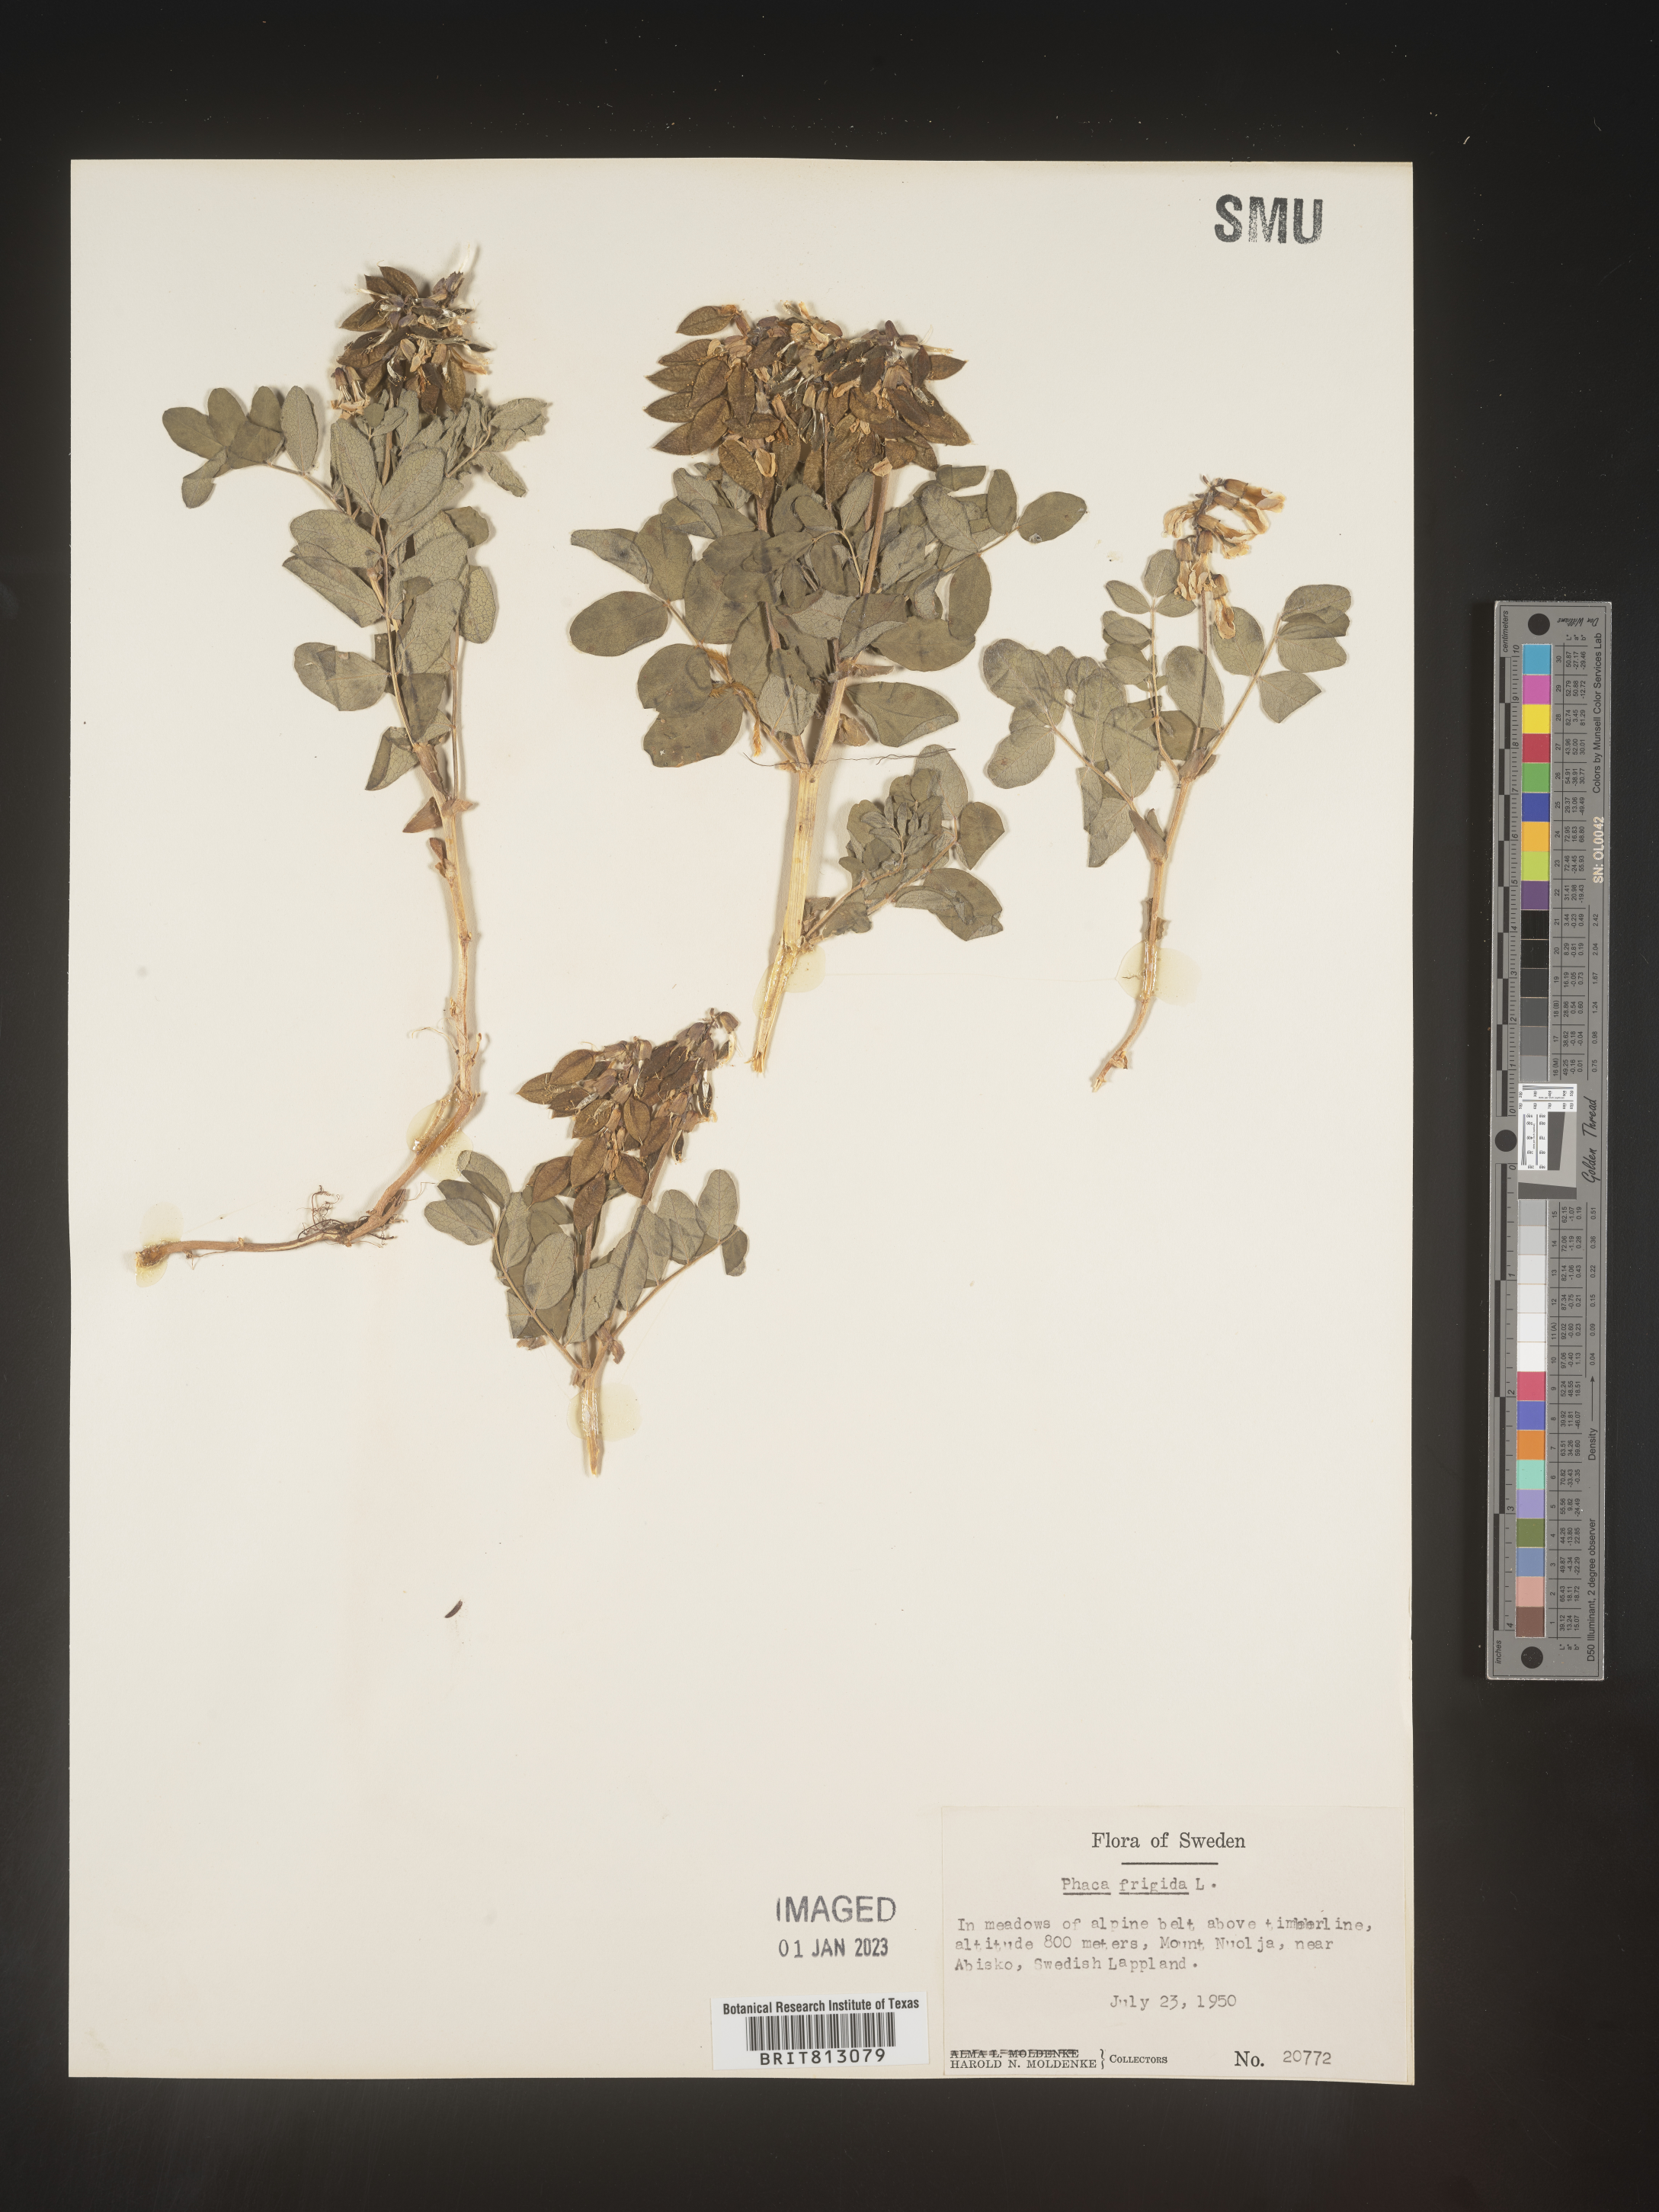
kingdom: Plantae
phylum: Tracheophyta
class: Magnoliopsida
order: Fabales
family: Fabaceae
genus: Astragalus
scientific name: Astragalus
